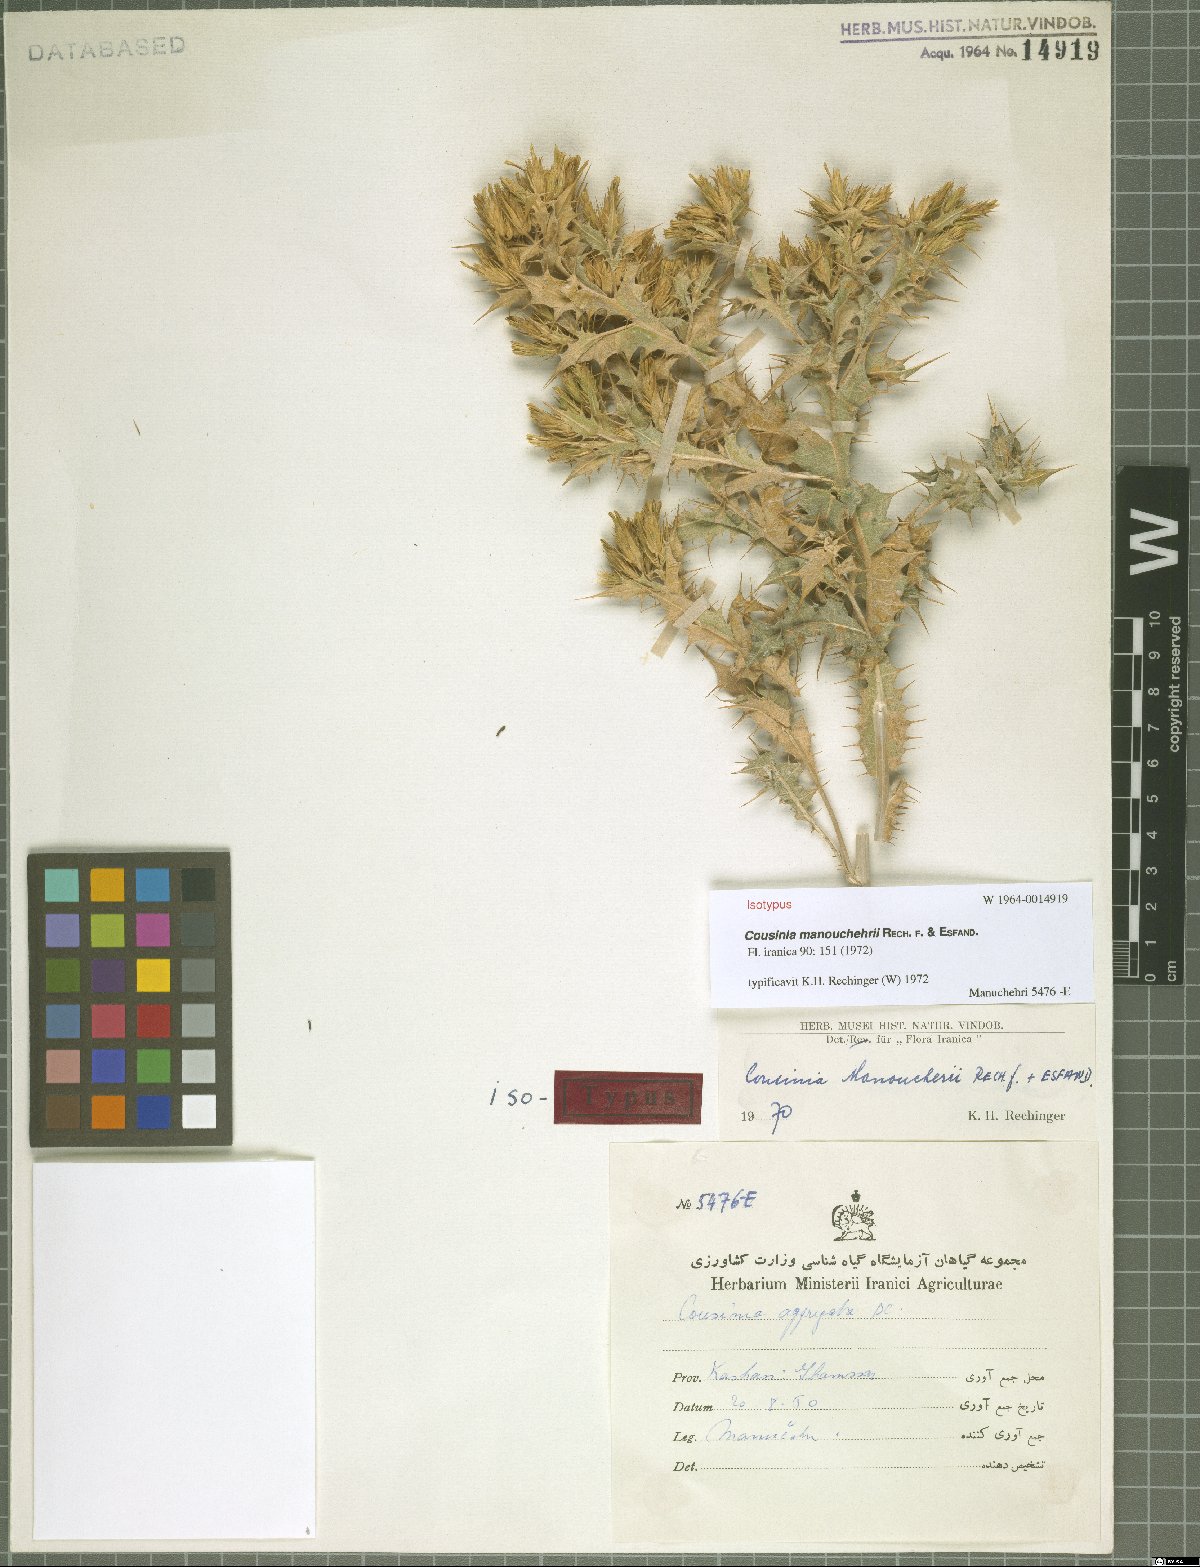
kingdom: Plantae
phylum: Tracheophyta
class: Magnoliopsida
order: Asterales
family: Asteraceae
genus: Cousinia
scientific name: Cousinia manouchehrii
